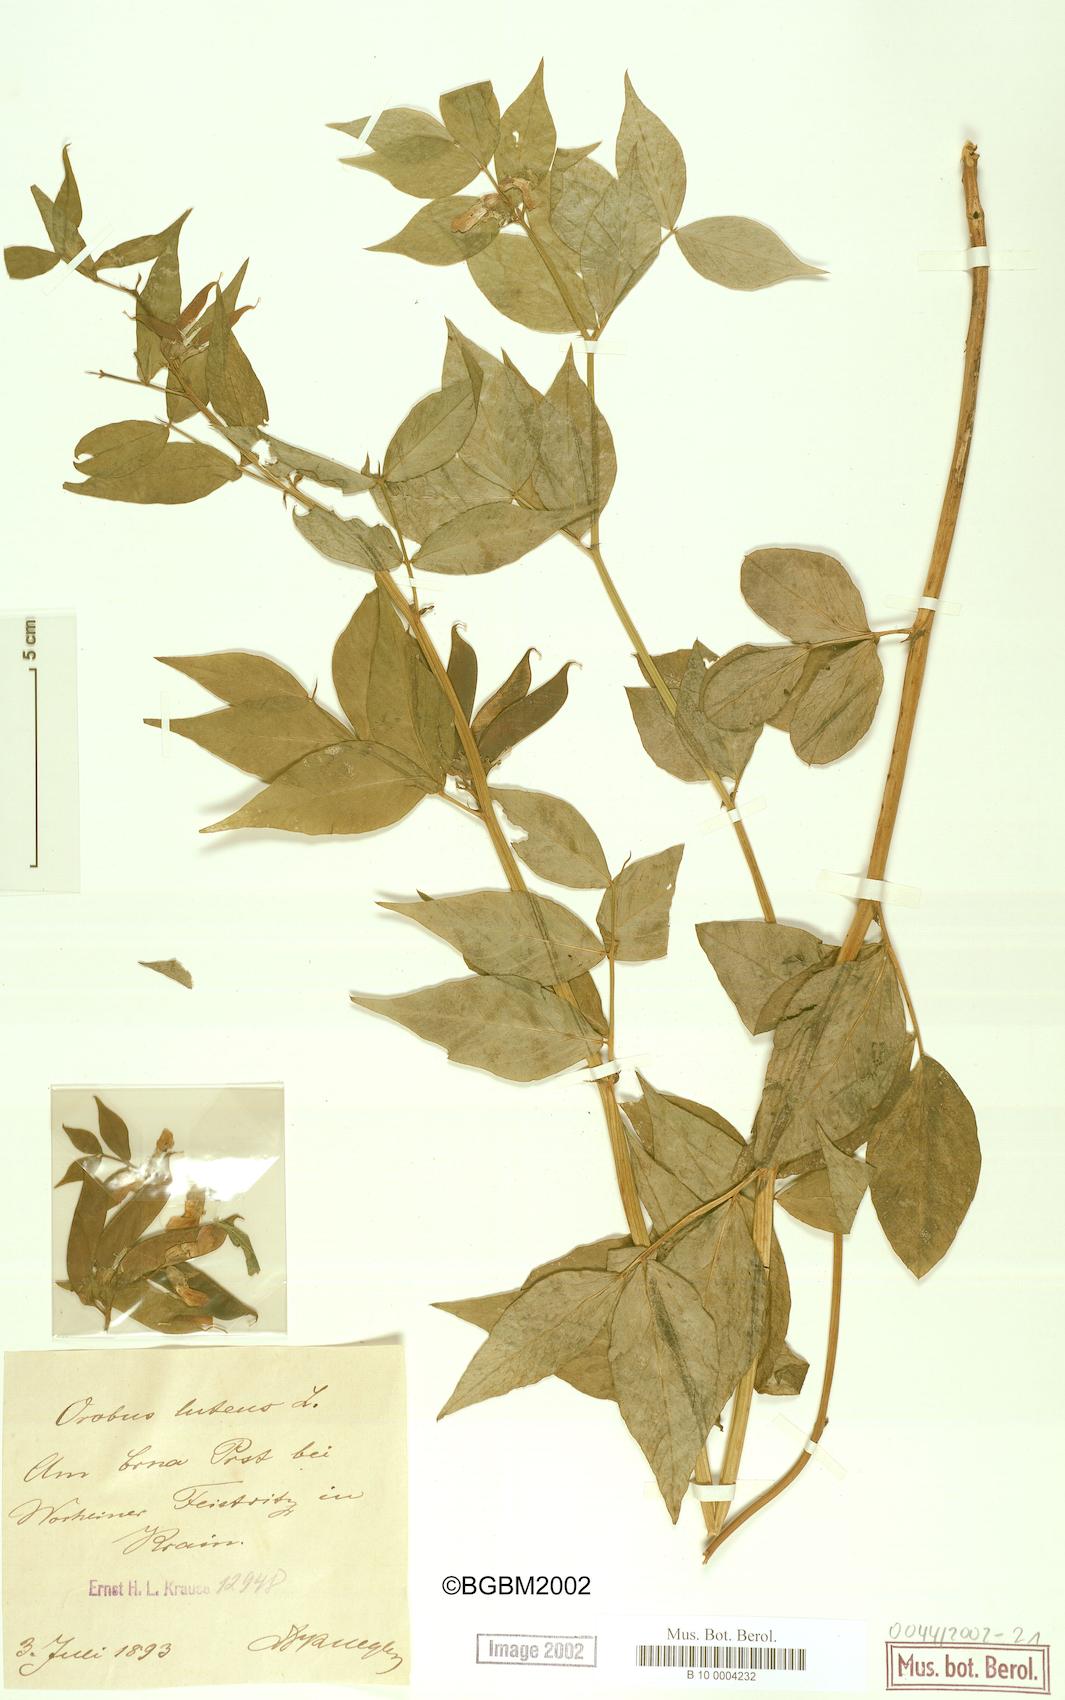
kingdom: Plantae
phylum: Tracheophyta
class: Magnoliopsida
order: Fabales
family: Fabaceae
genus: Lathyrus
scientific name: Lathyrus gmelinii
